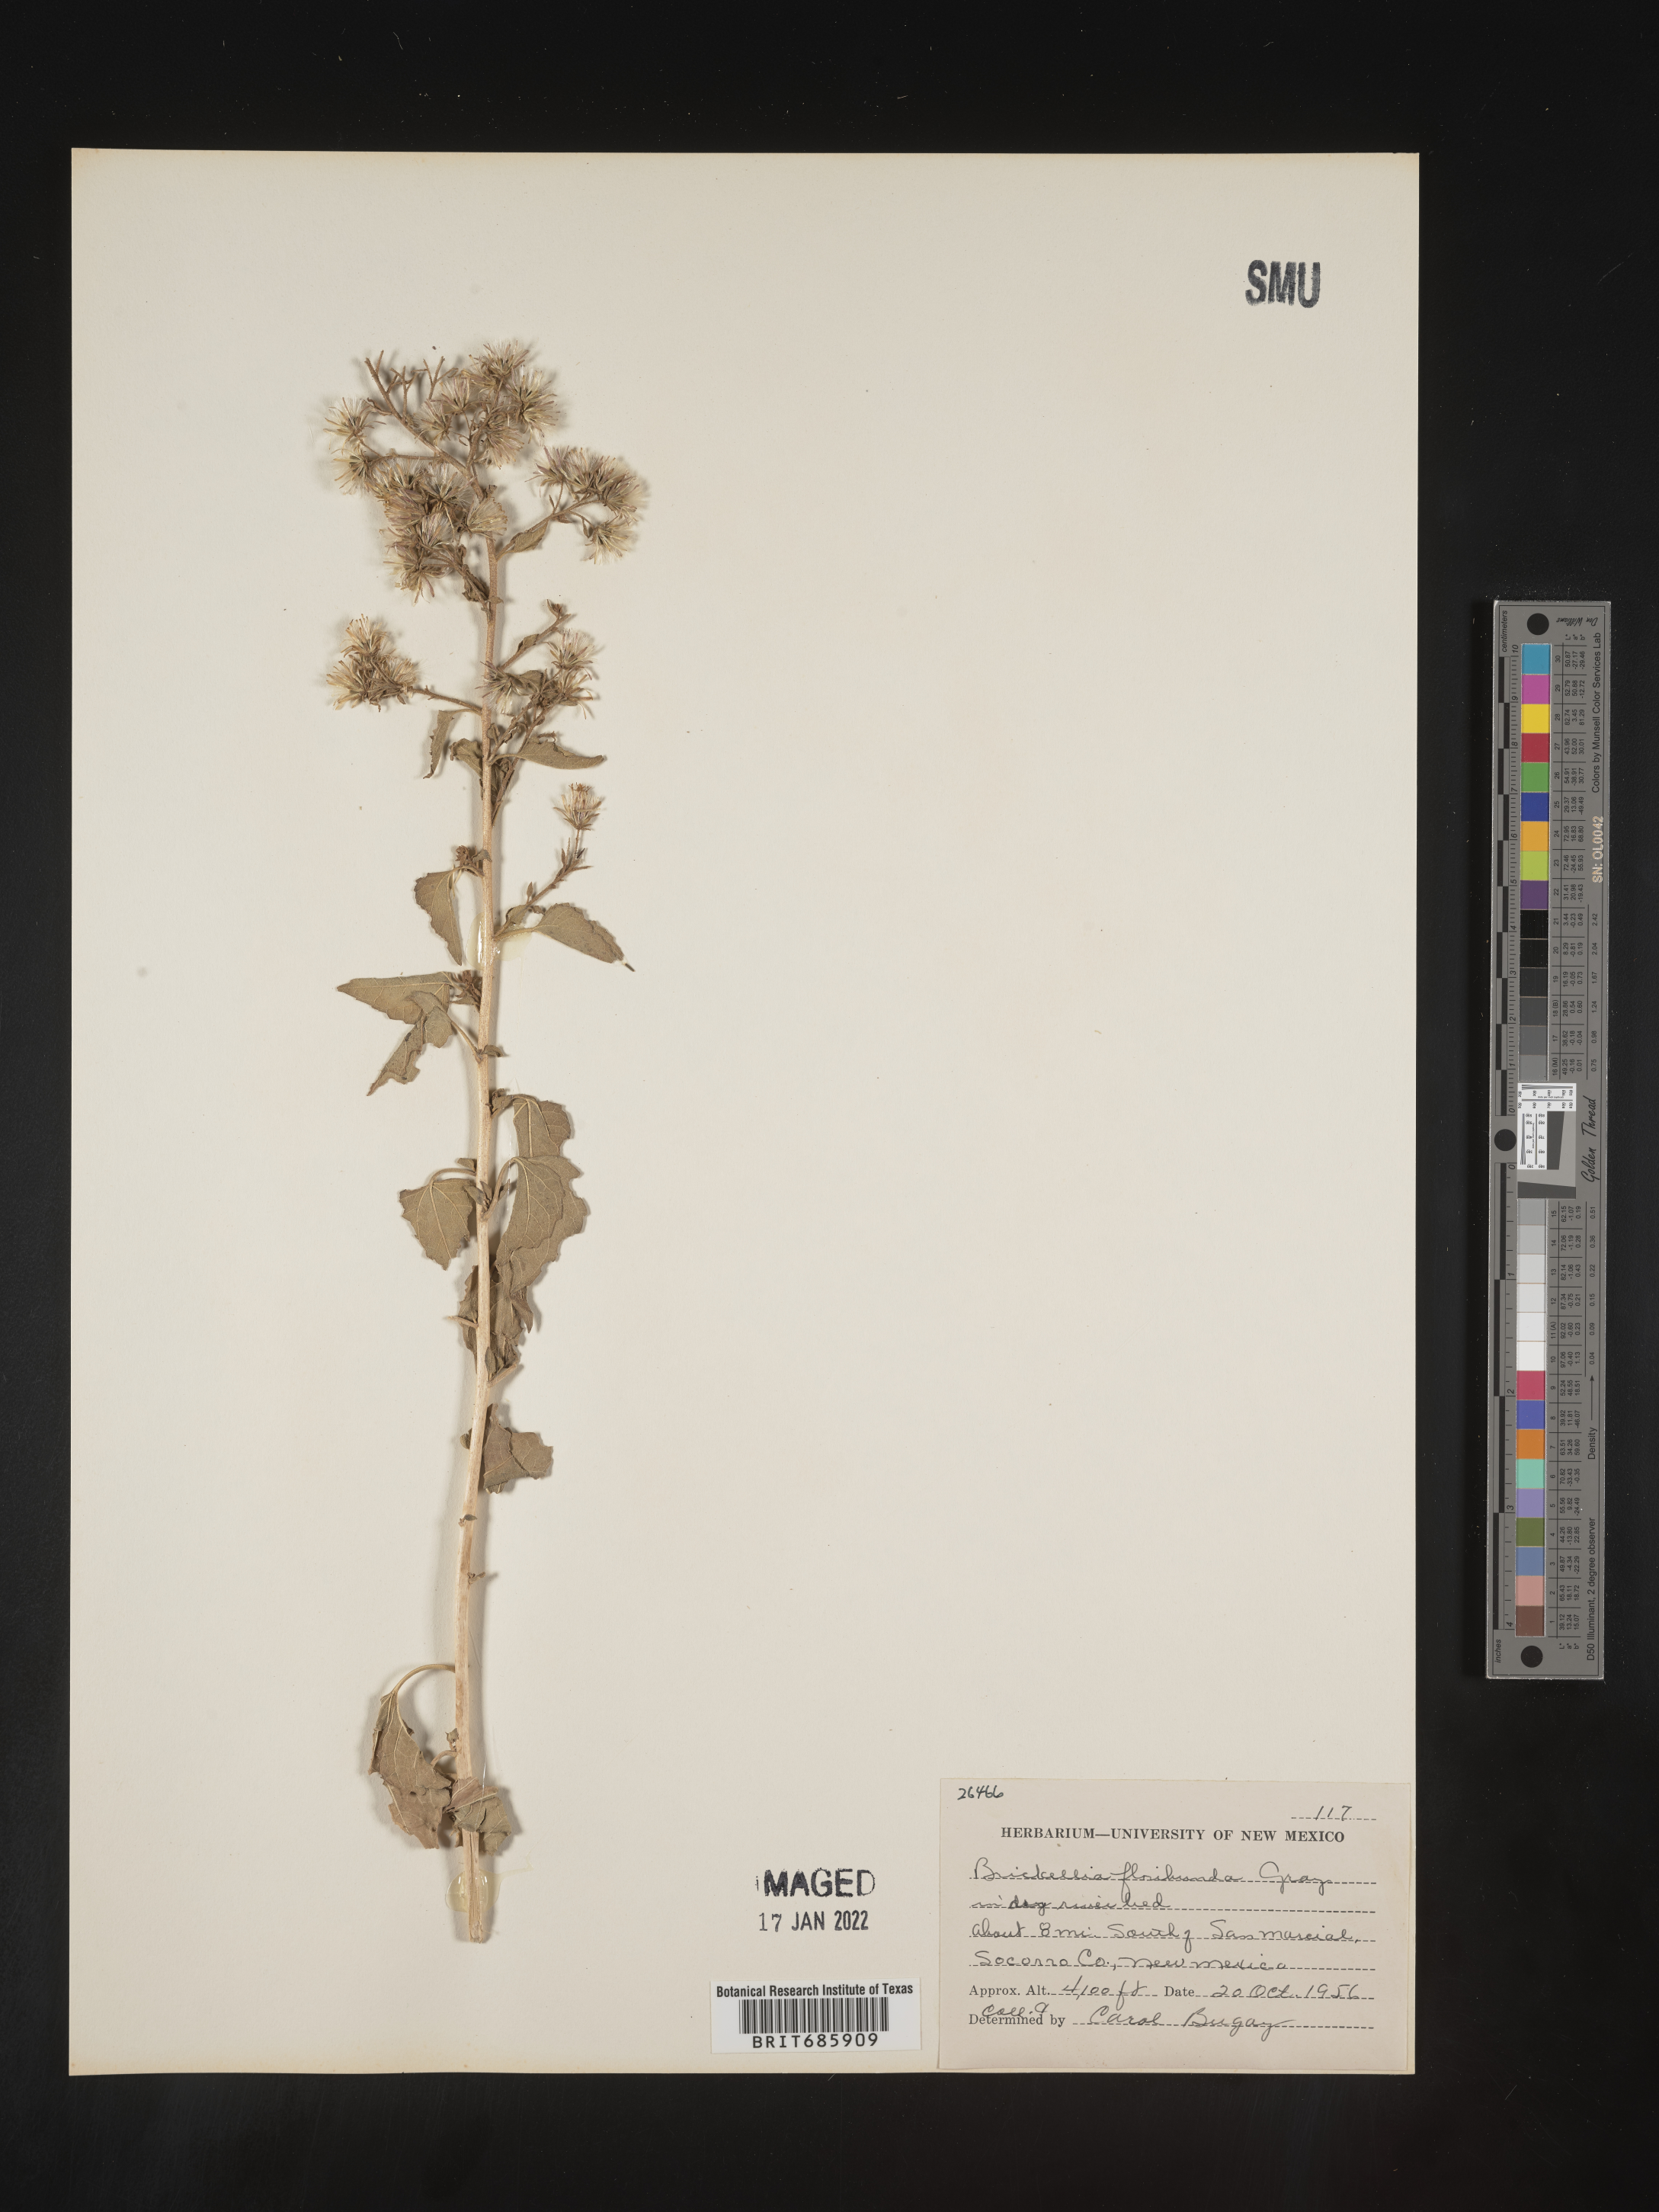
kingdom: Plantae
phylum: Tracheophyta
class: Magnoliopsida
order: Asterales
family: Asteraceae
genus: Brickellia
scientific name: Brickellia floribunda
